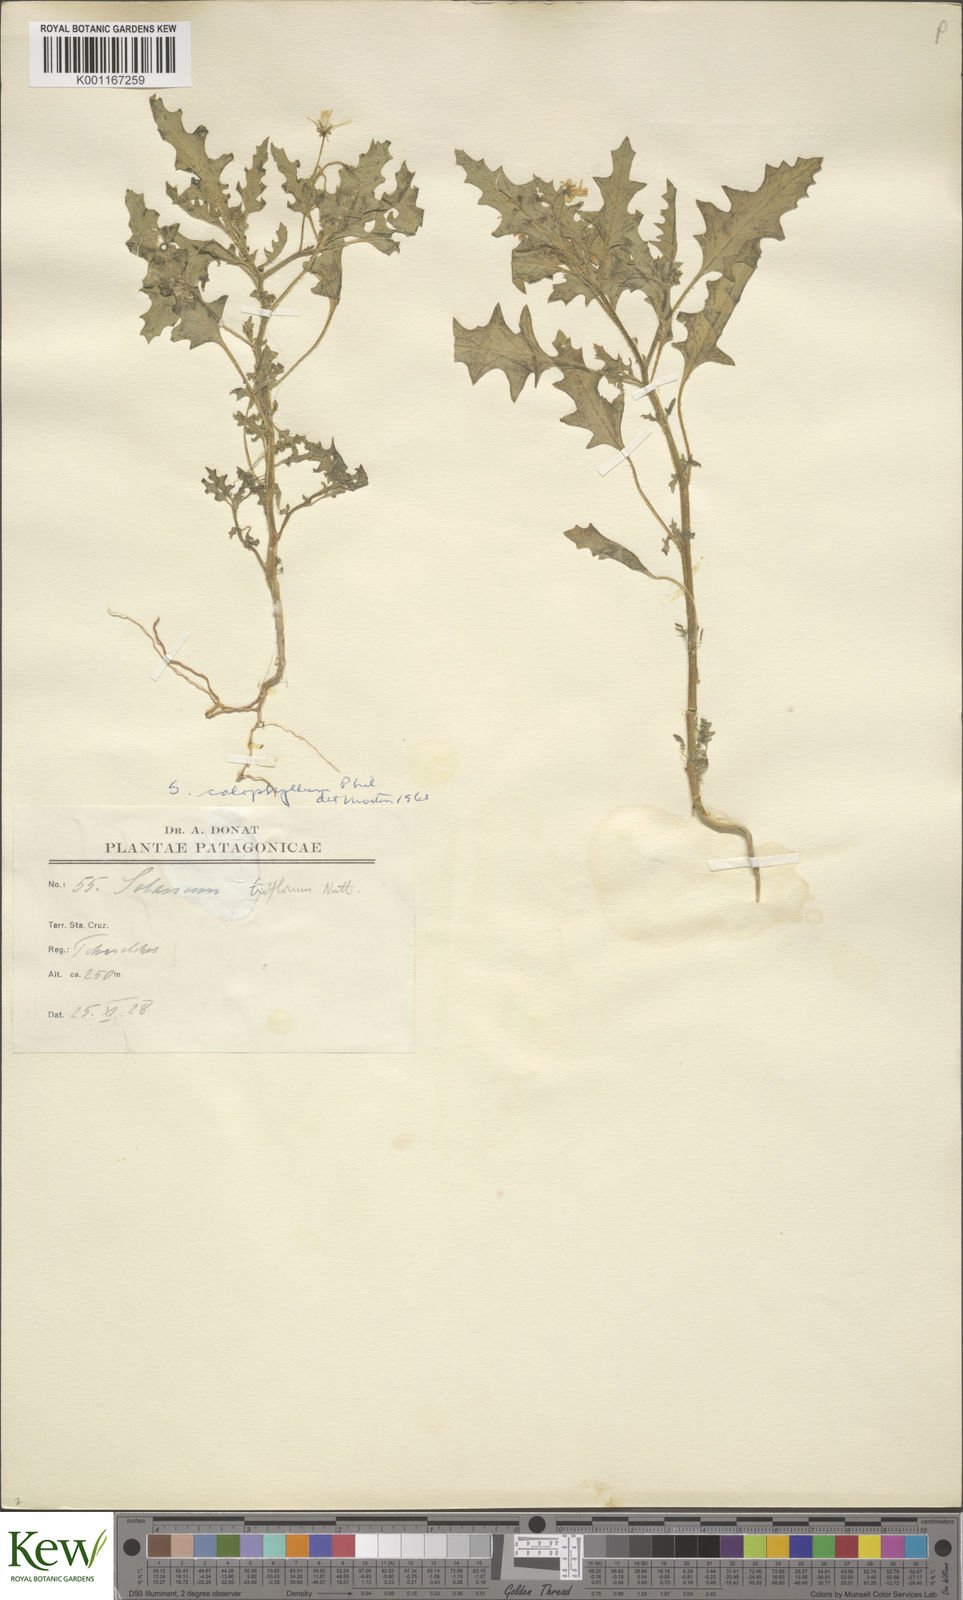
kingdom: Plantae
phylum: Tracheophyta
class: Magnoliopsida
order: Solanales
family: Solanaceae
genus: Solanum
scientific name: Solanum triflorum
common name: Small nightshade
